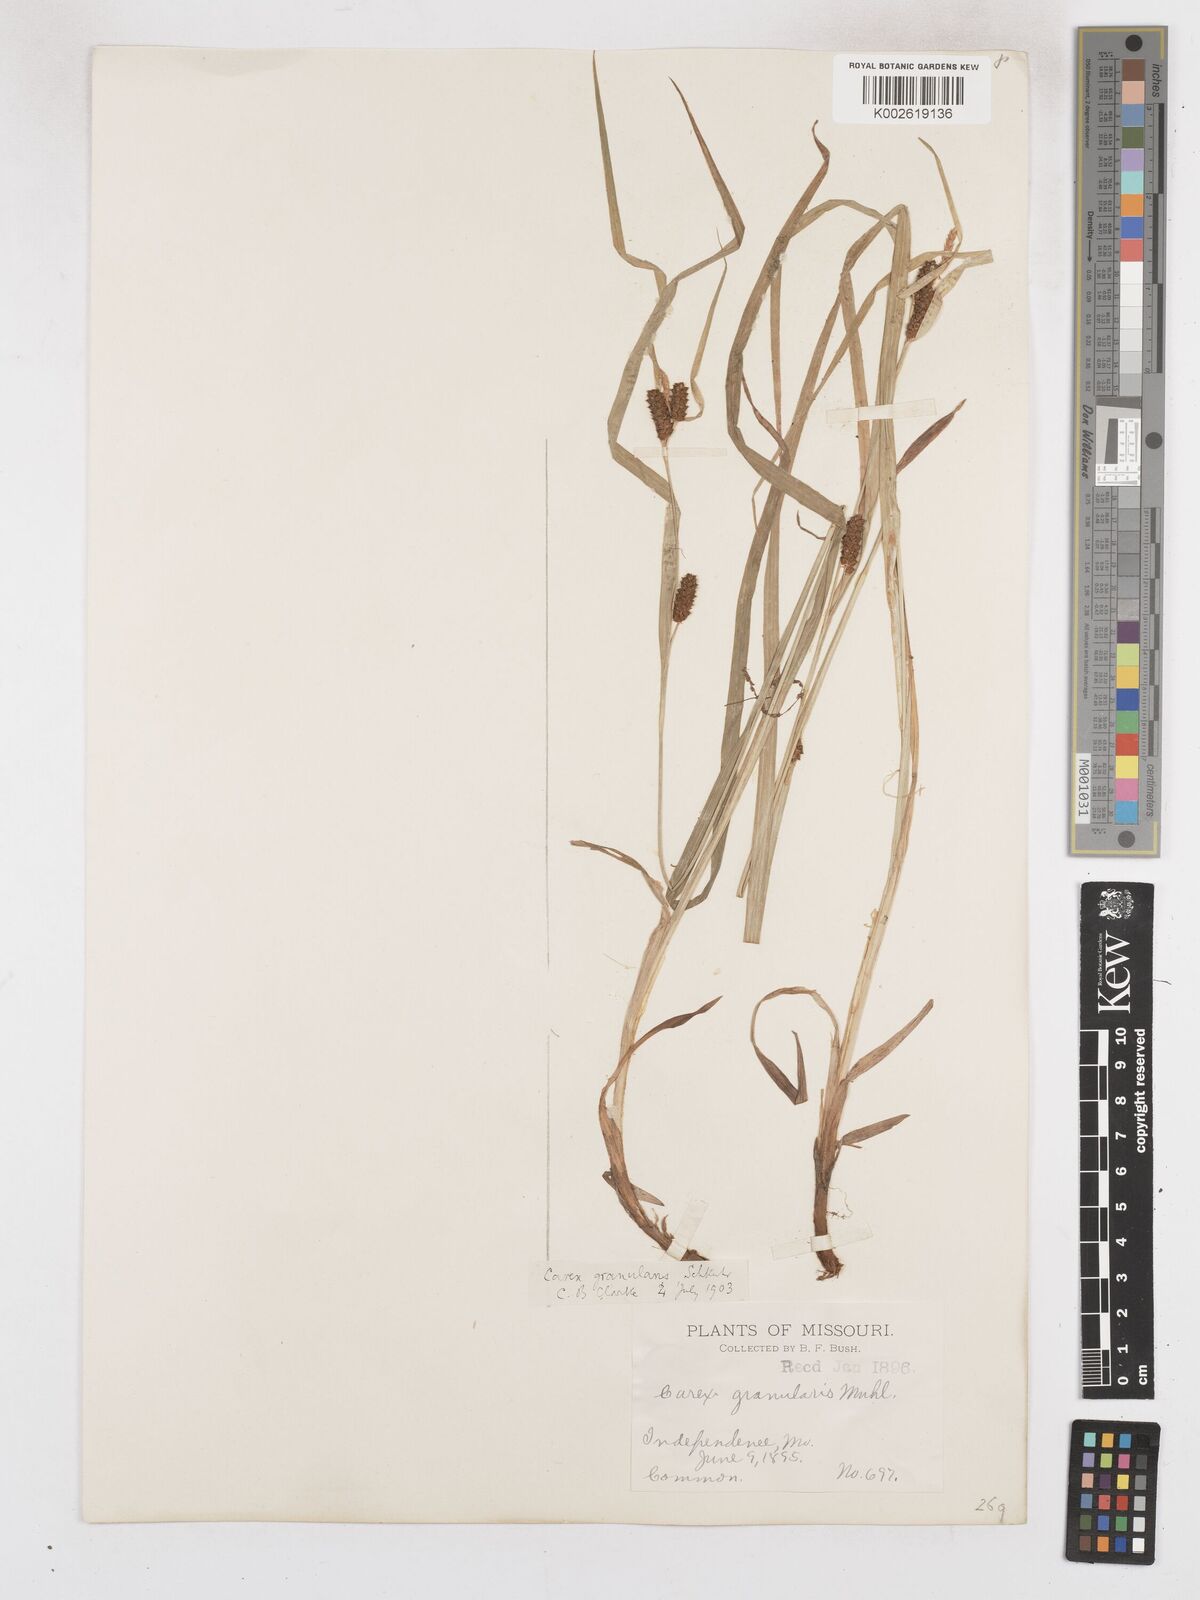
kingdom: Plantae
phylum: Tracheophyta
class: Liliopsida
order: Poales
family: Cyperaceae
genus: Carex
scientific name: Carex granularis
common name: Granular sedge
